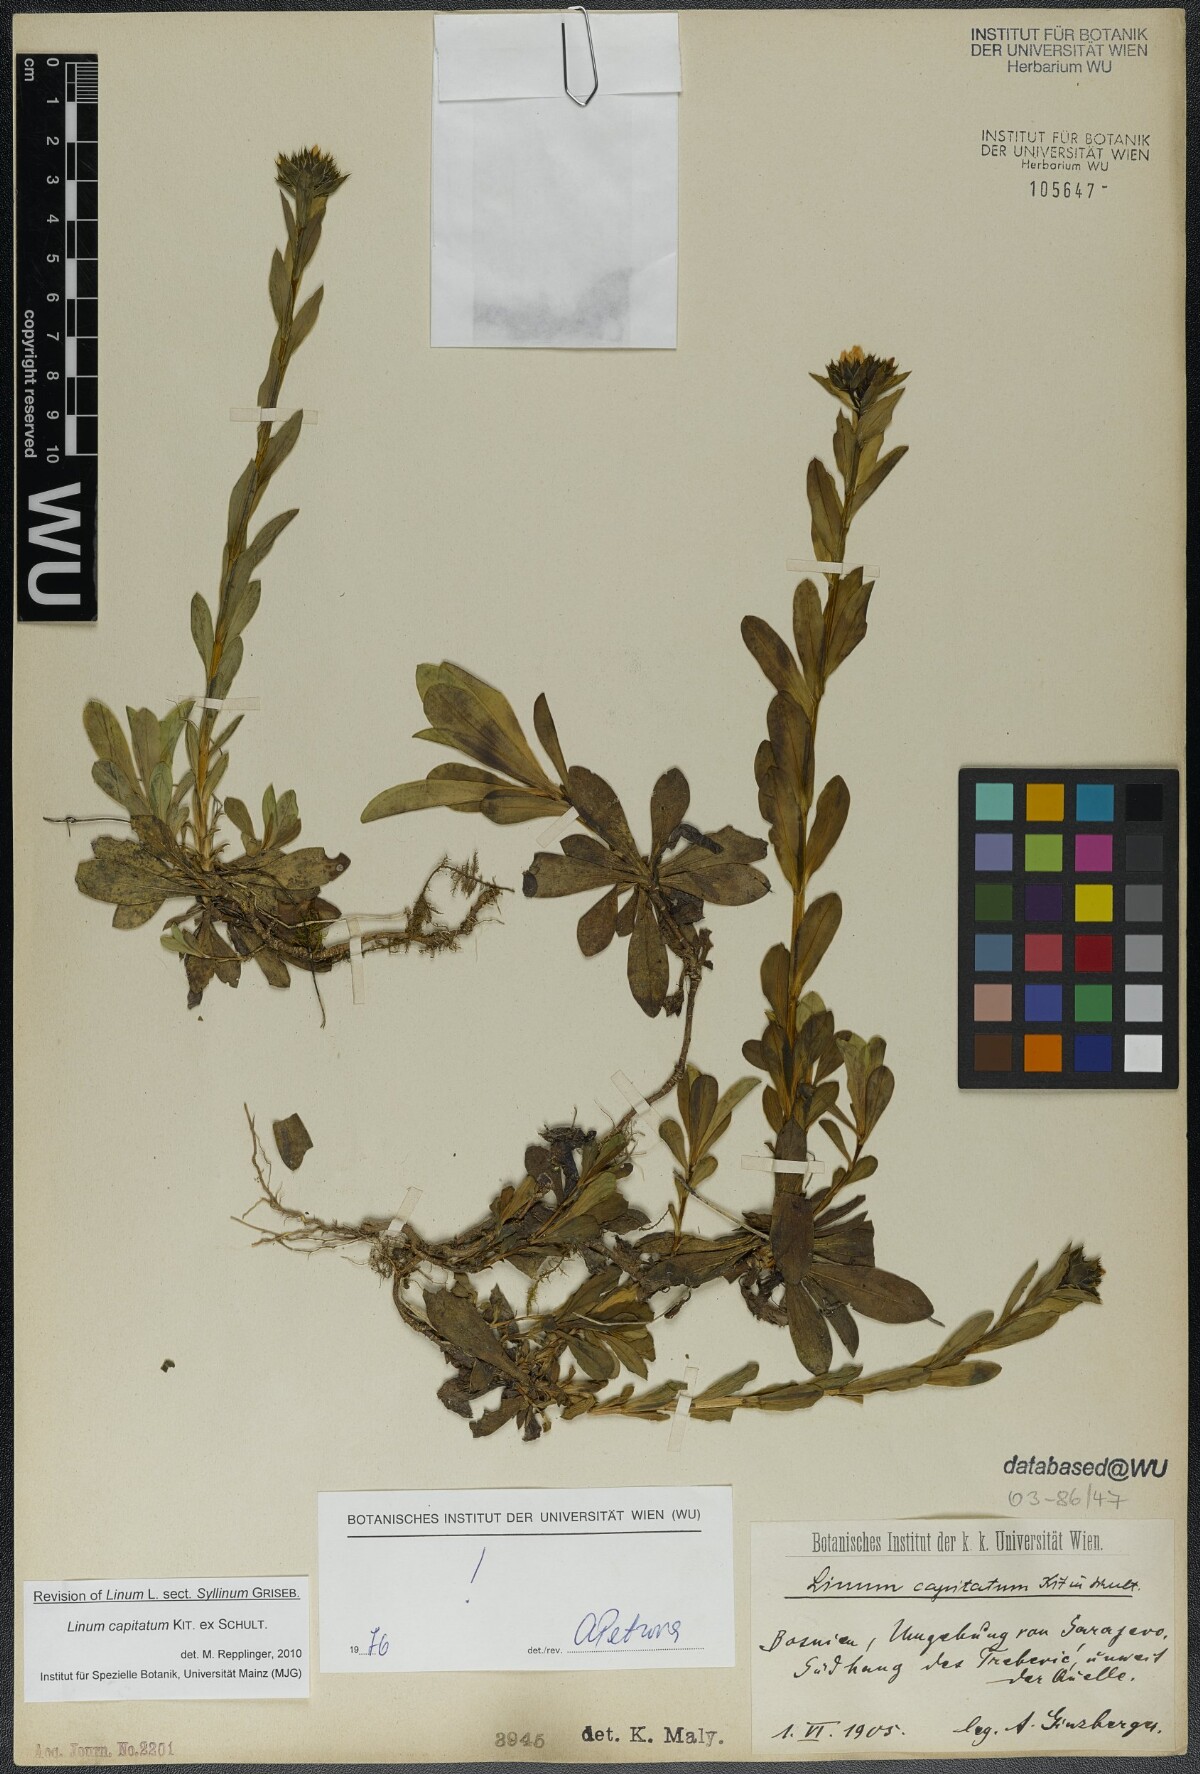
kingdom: Plantae
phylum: Tracheophyta
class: Magnoliopsida
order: Malpighiales
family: Linaceae
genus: Linum
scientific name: Linum capitatum
